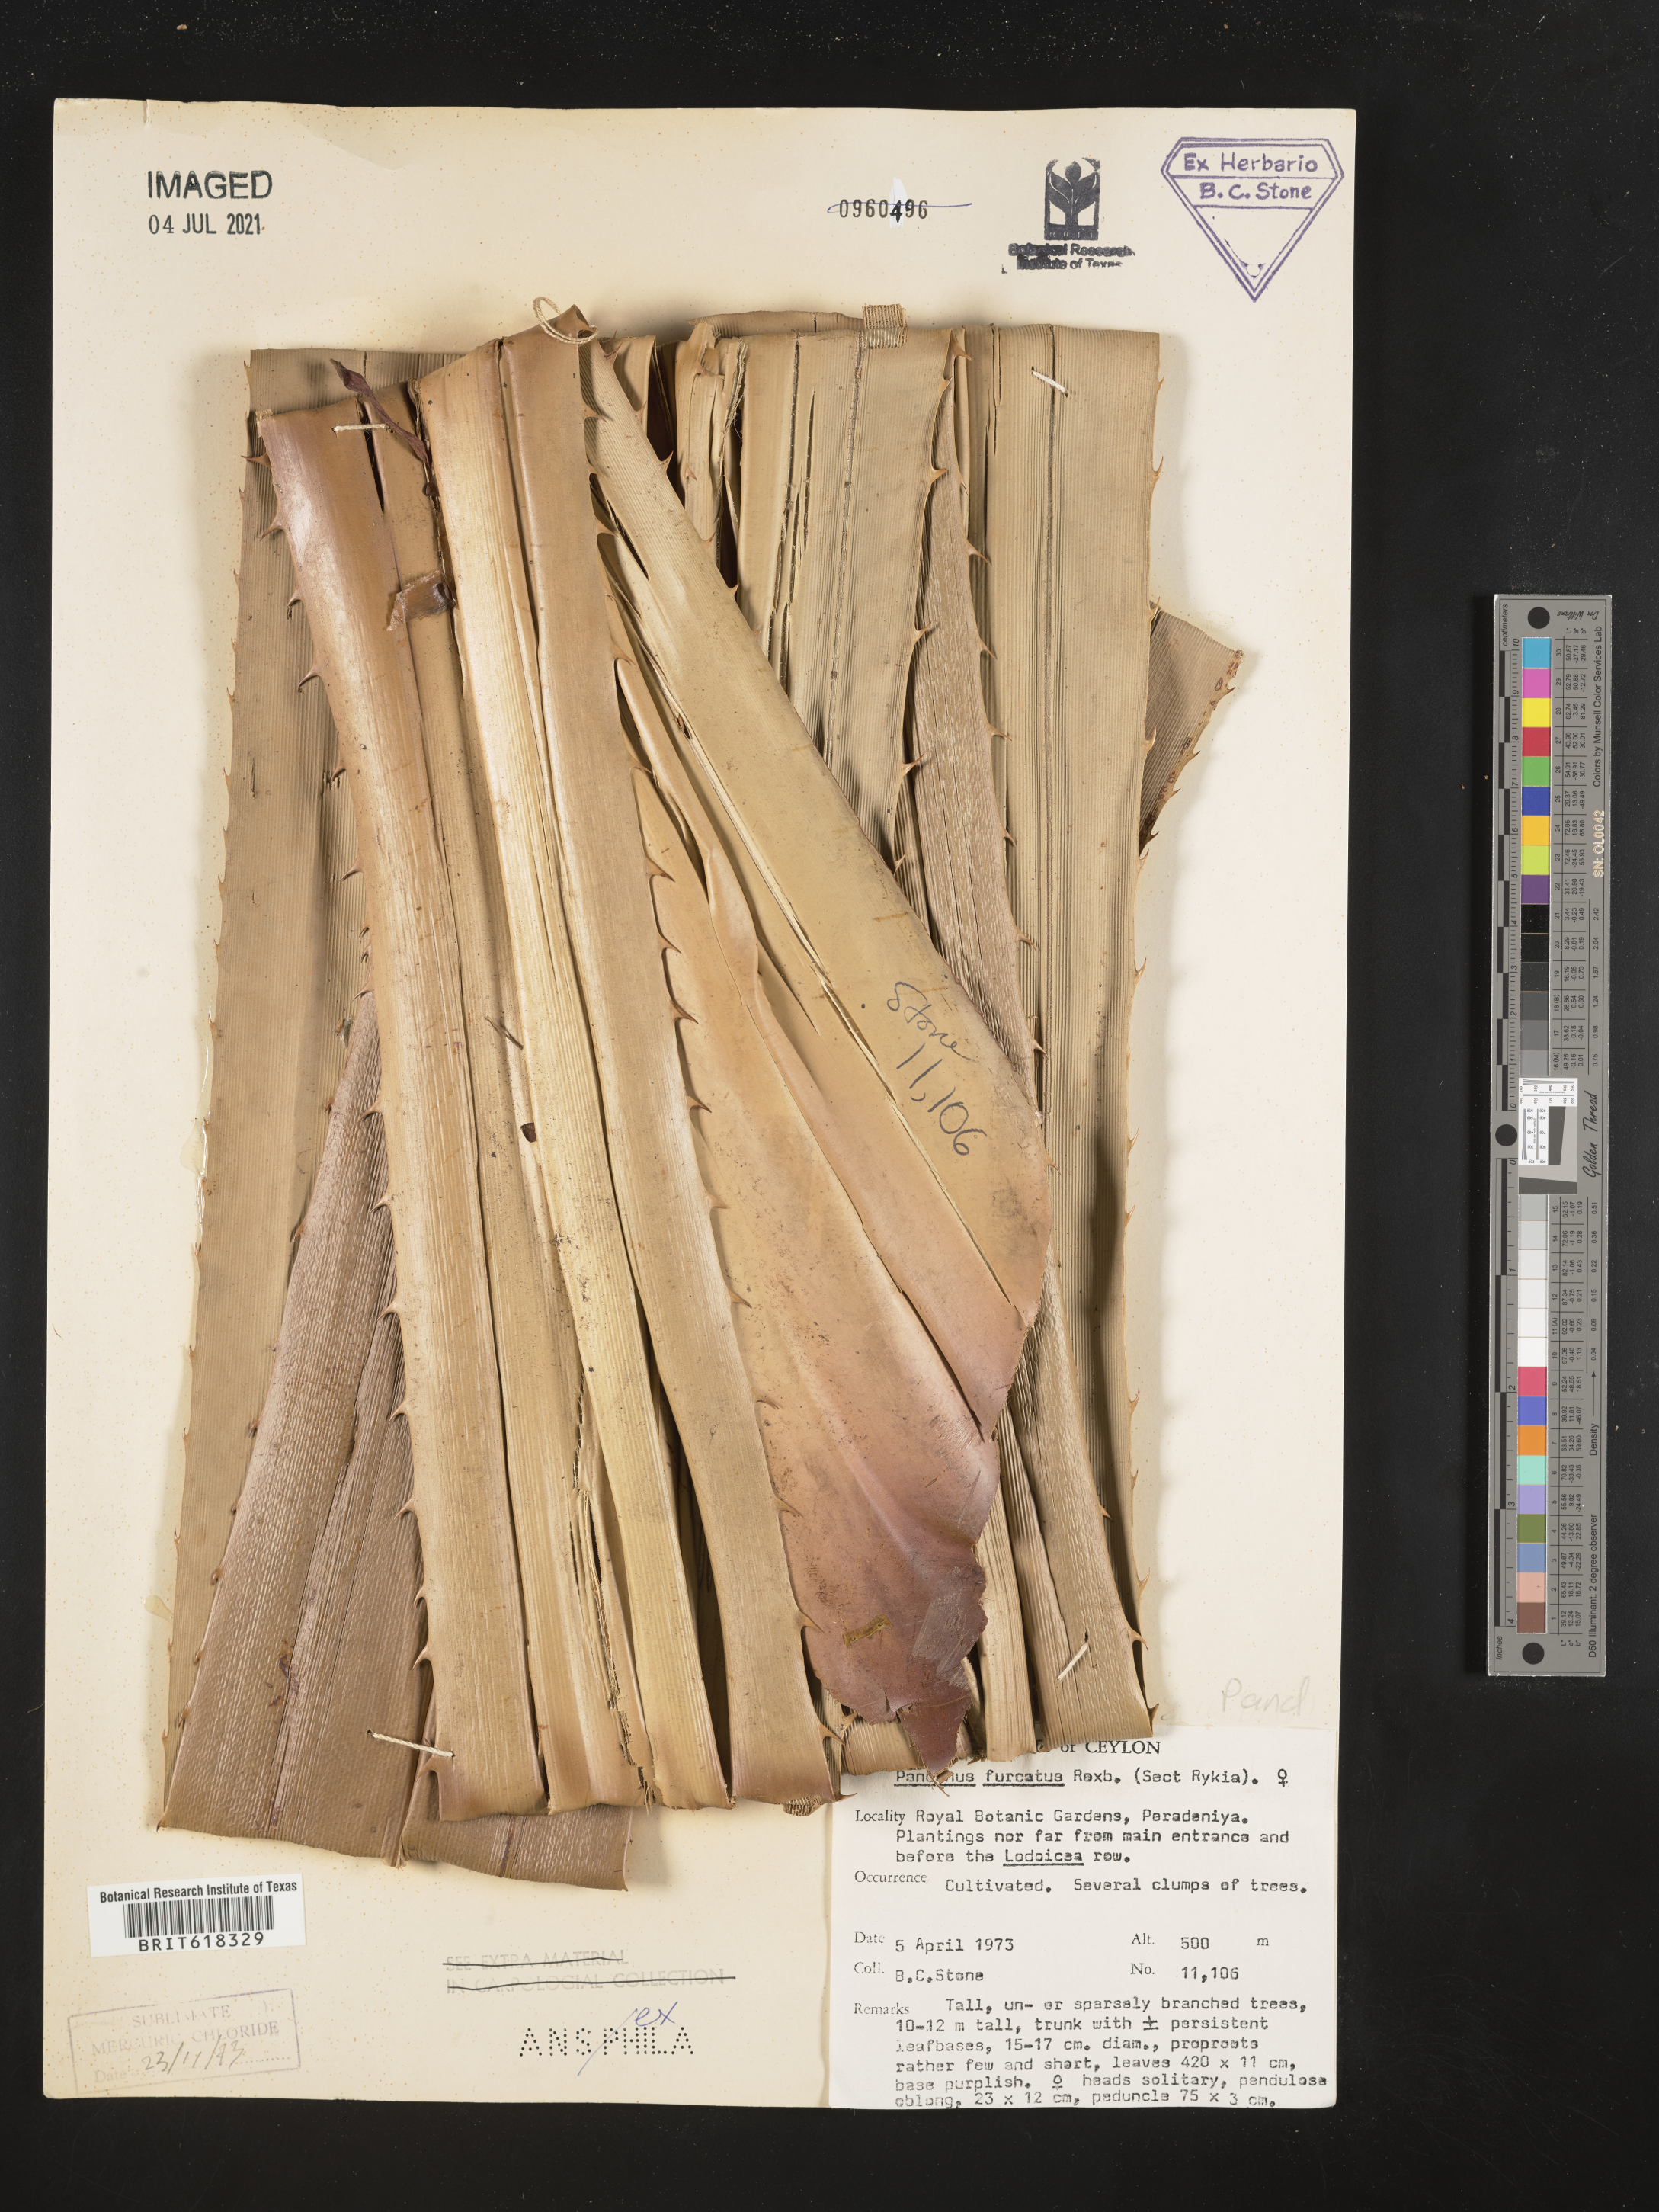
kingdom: Plantae
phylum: Tracheophyta
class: Liliopsida
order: Pandanales
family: Pandanaceae
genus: Pandanus
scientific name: Pandanus furcatus
